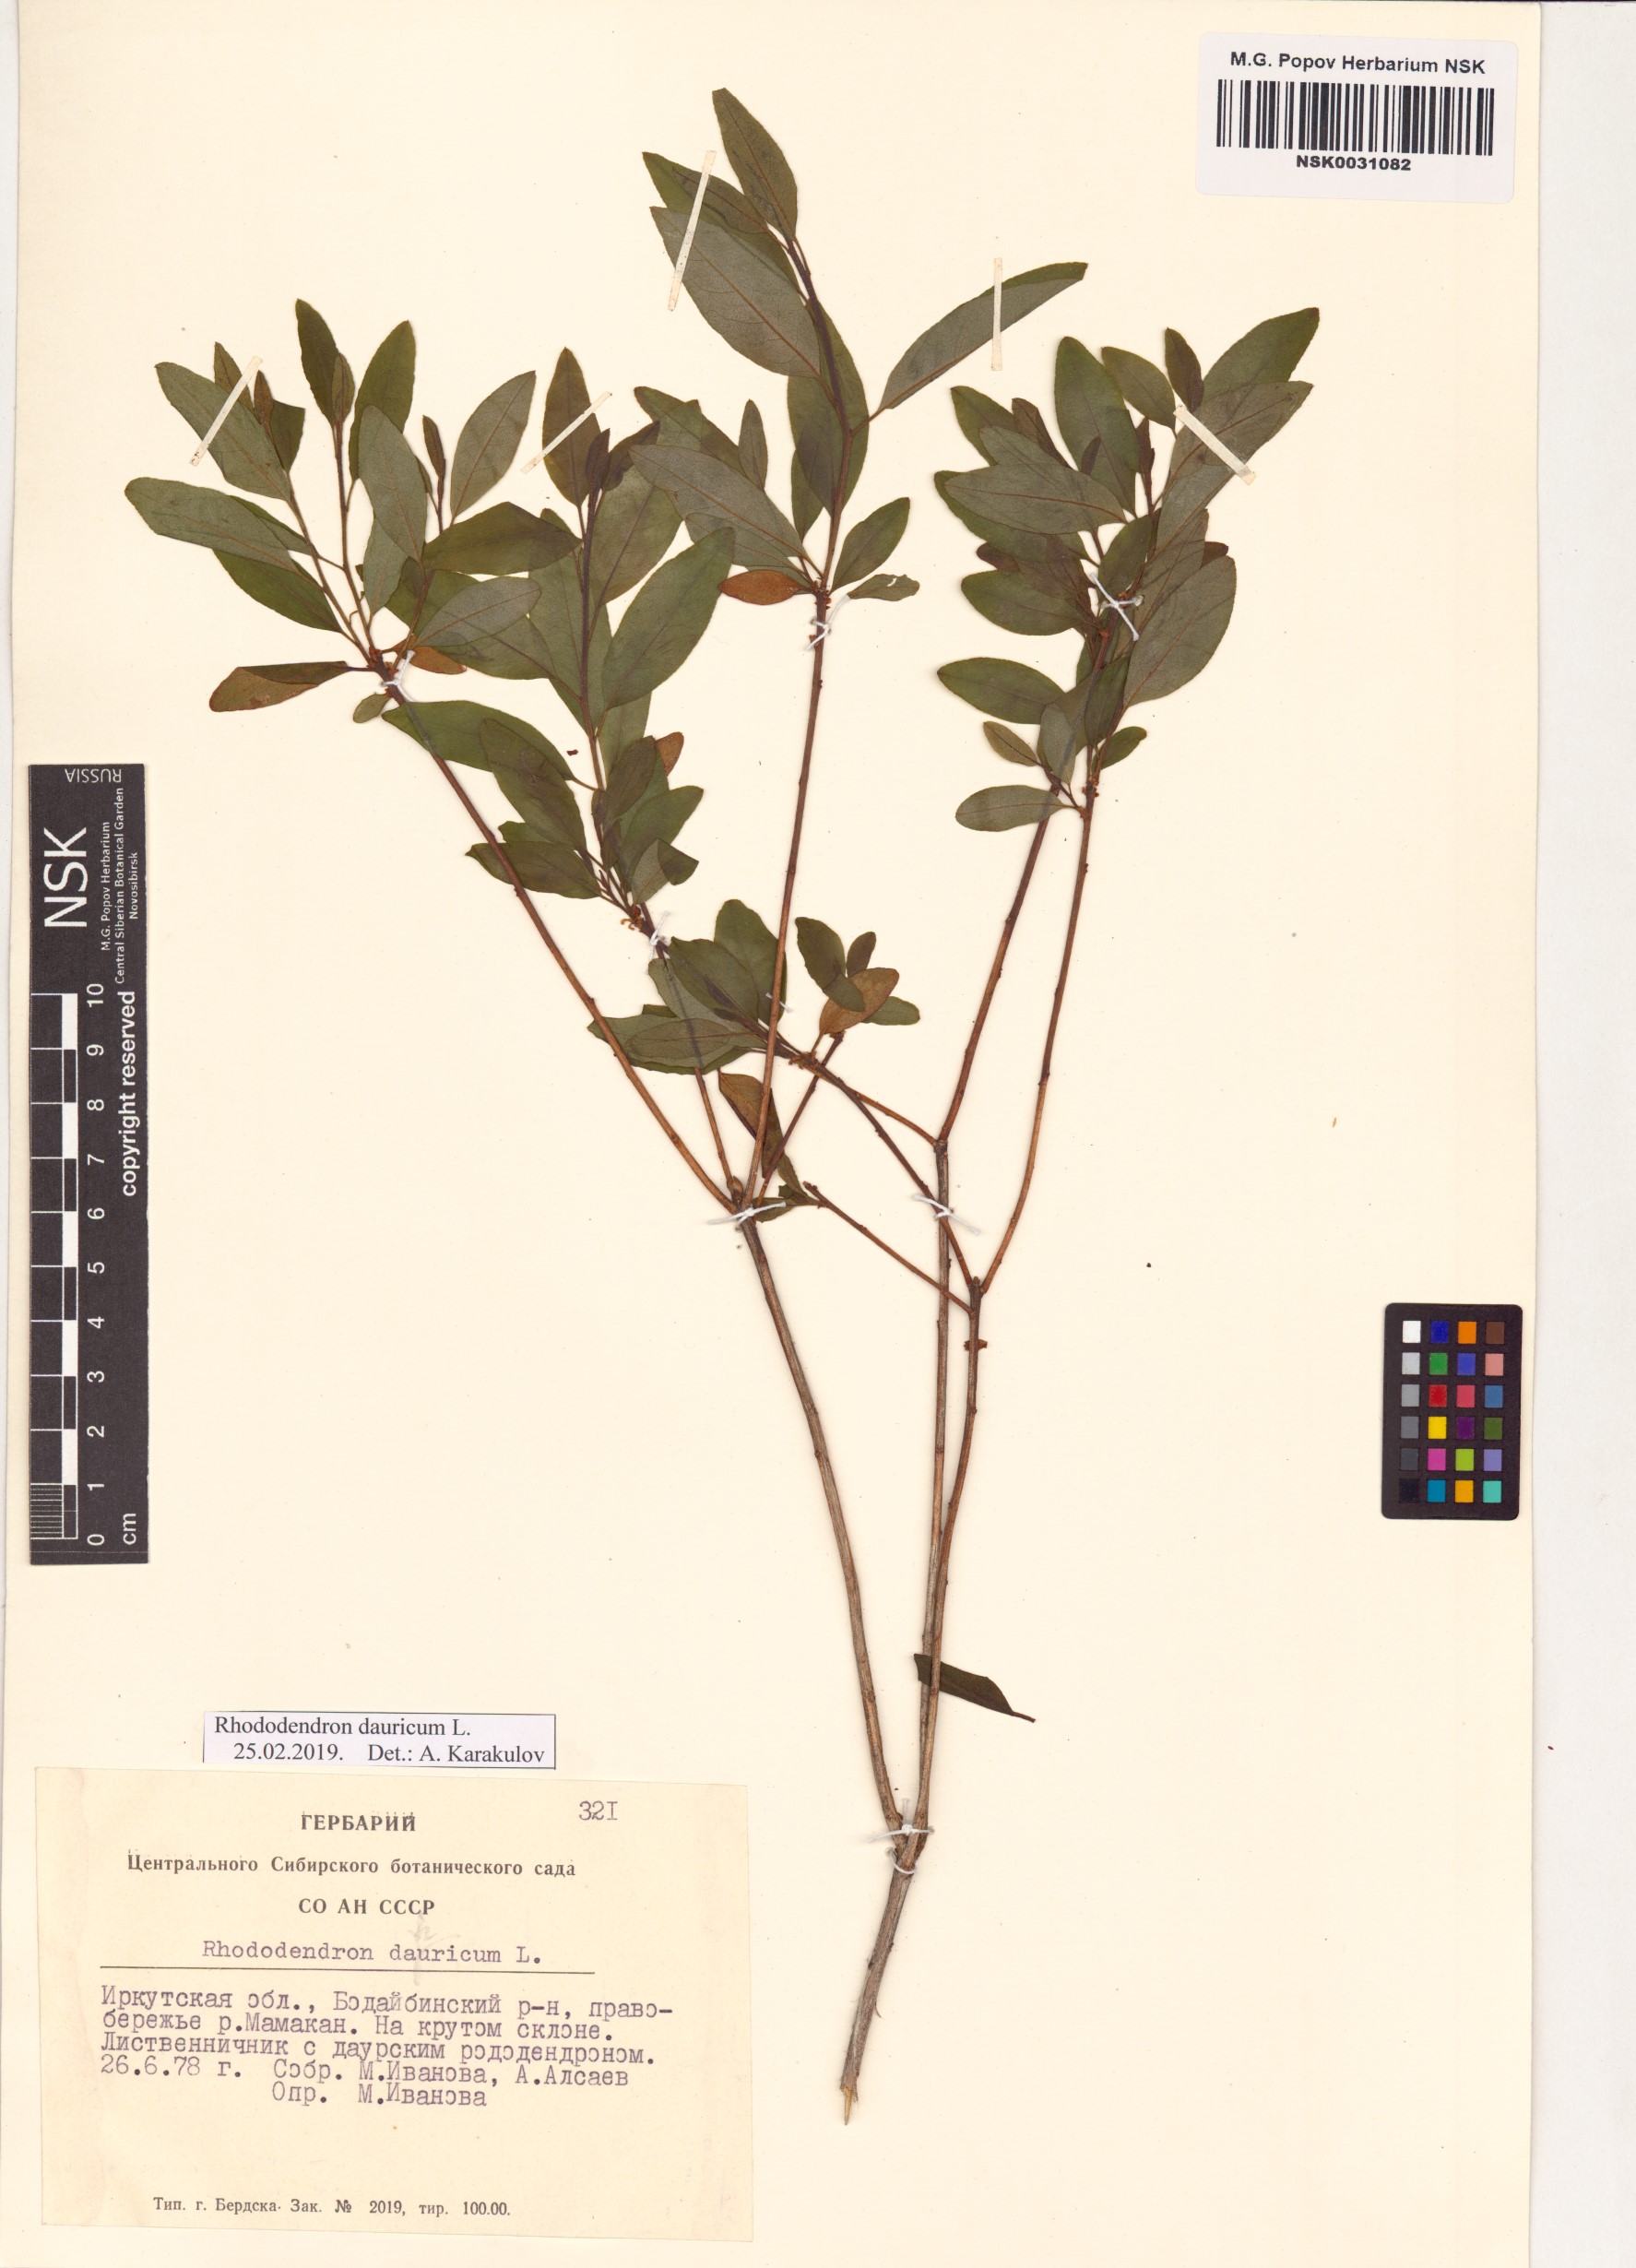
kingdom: Plantae
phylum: Tracheophyta
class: Magnoliopsida
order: Ericales
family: Ericaceae
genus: Rhododendron
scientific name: Rhododendron dauricum
